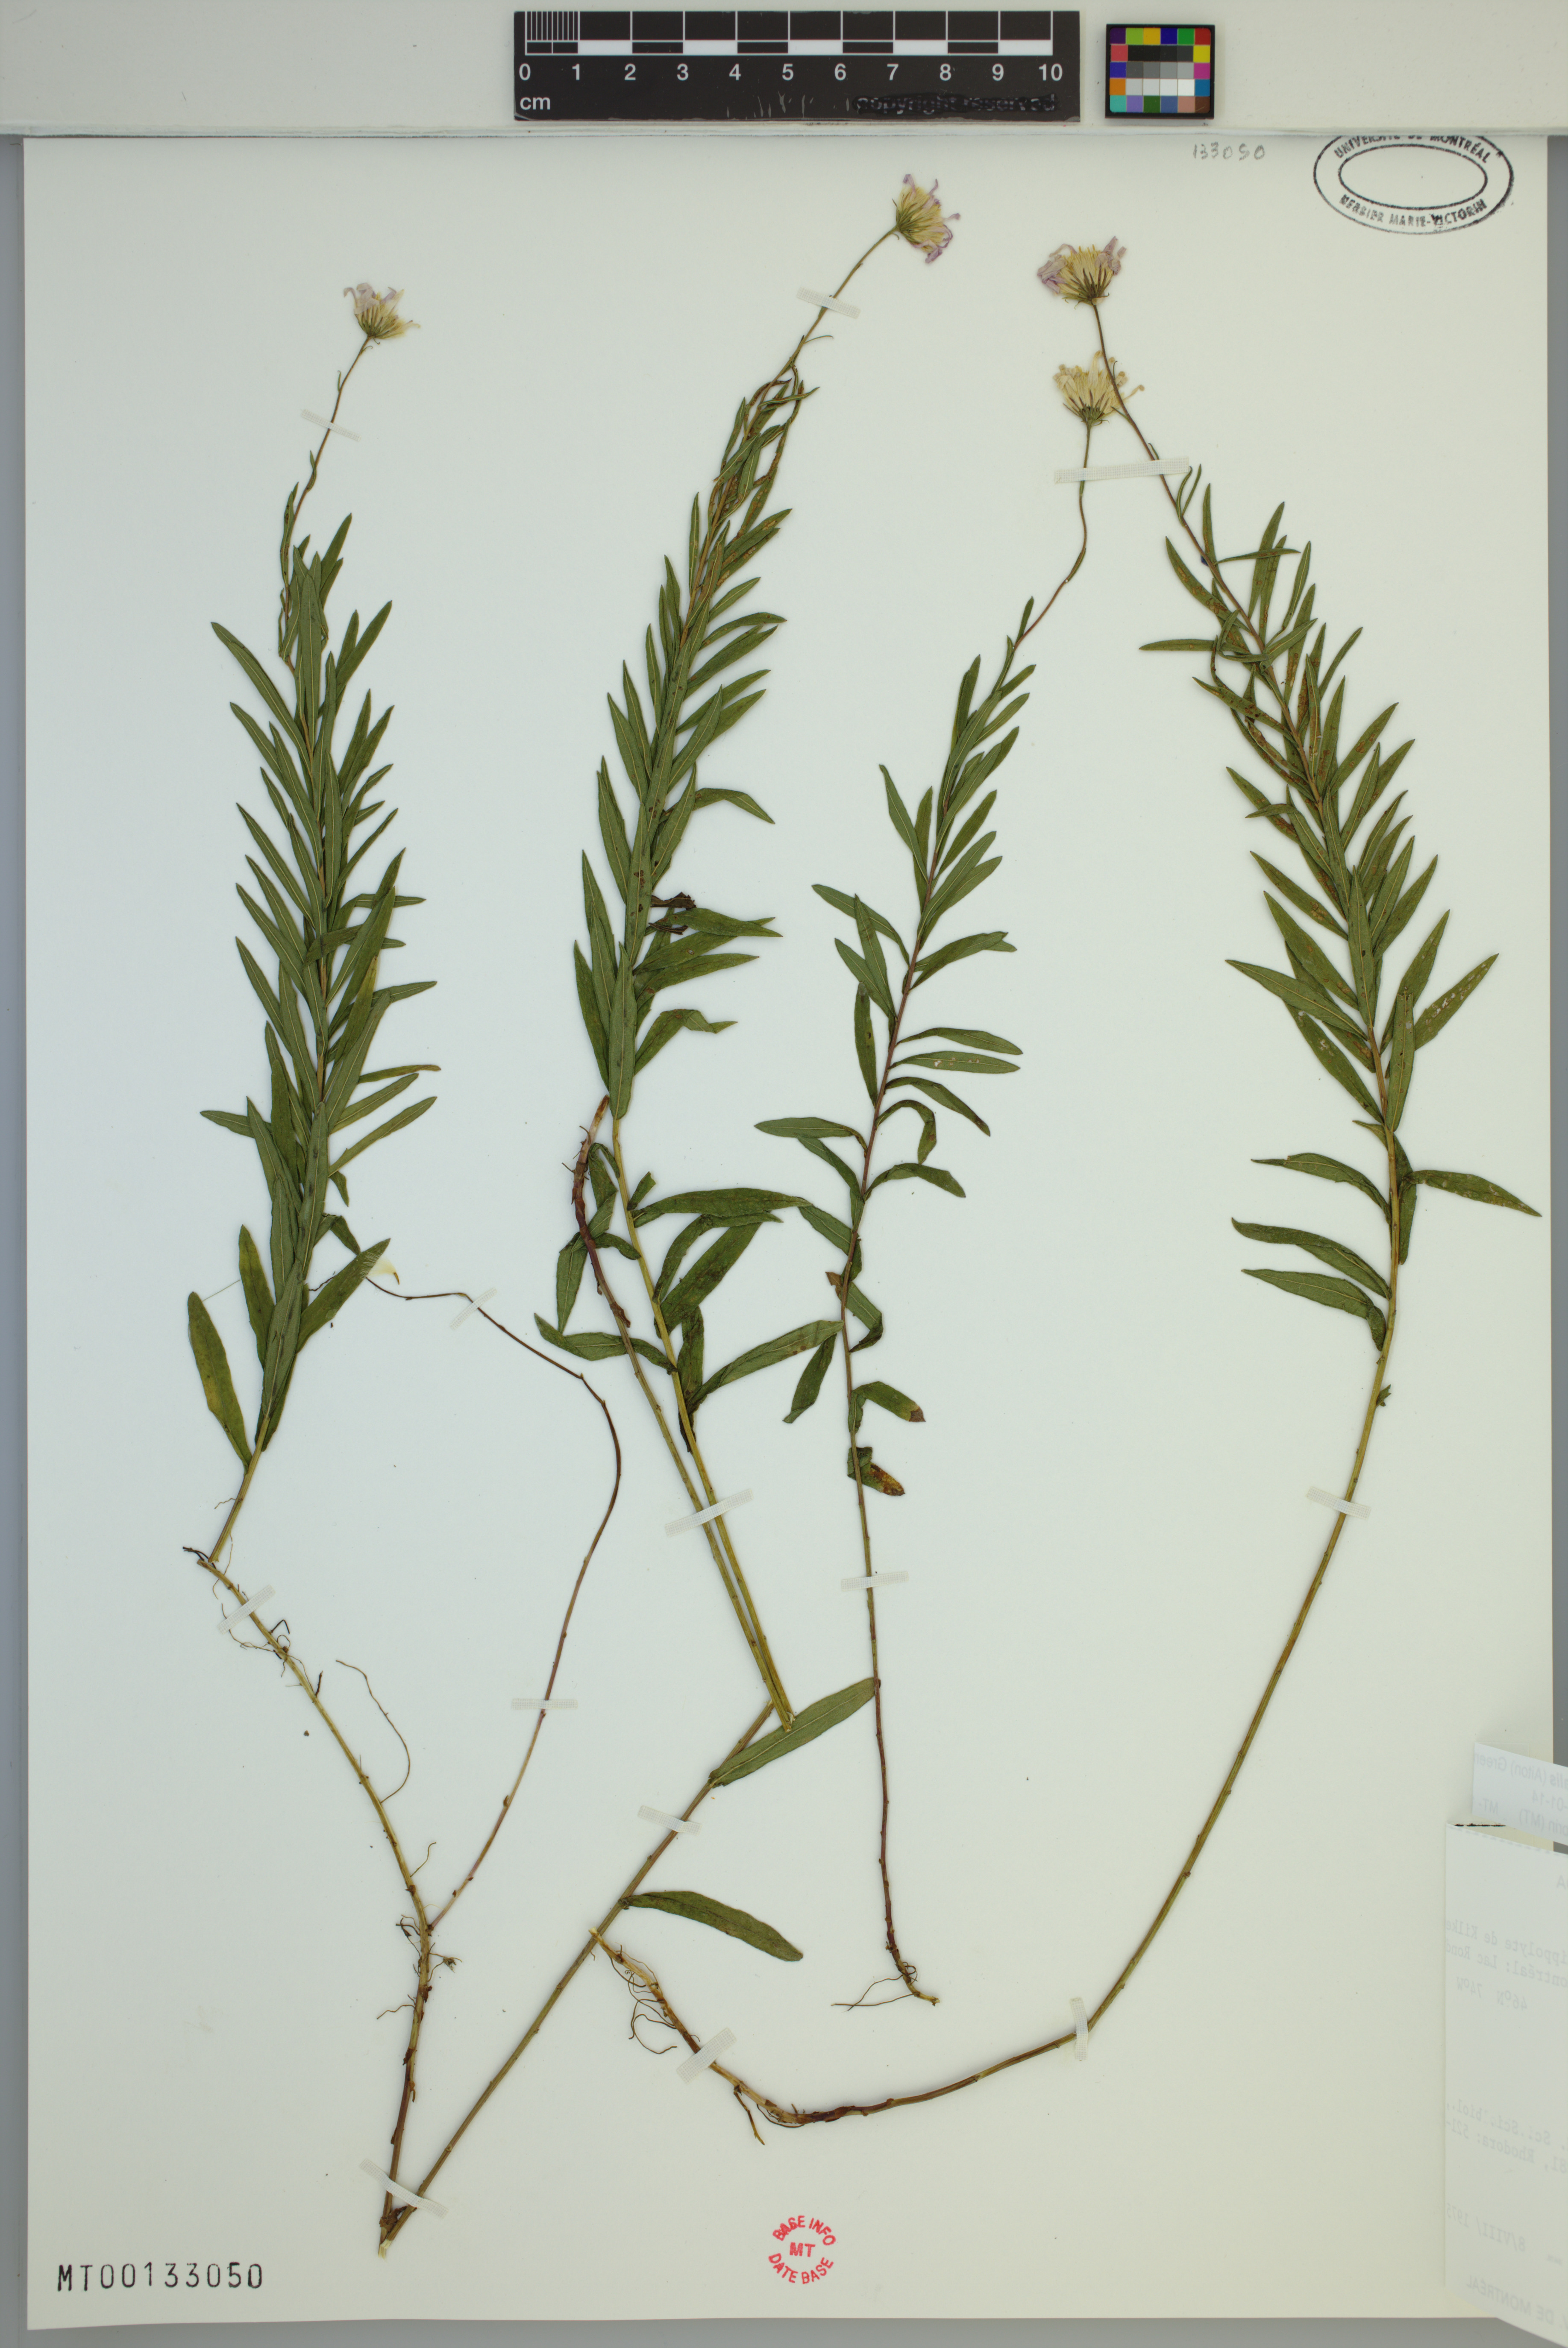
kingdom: Plantae
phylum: Tracheophyta
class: Magnoliopsida
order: Asterales
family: Asteraceae
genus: Oclemena
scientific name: Oclemena nemoralis
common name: Bog aster
